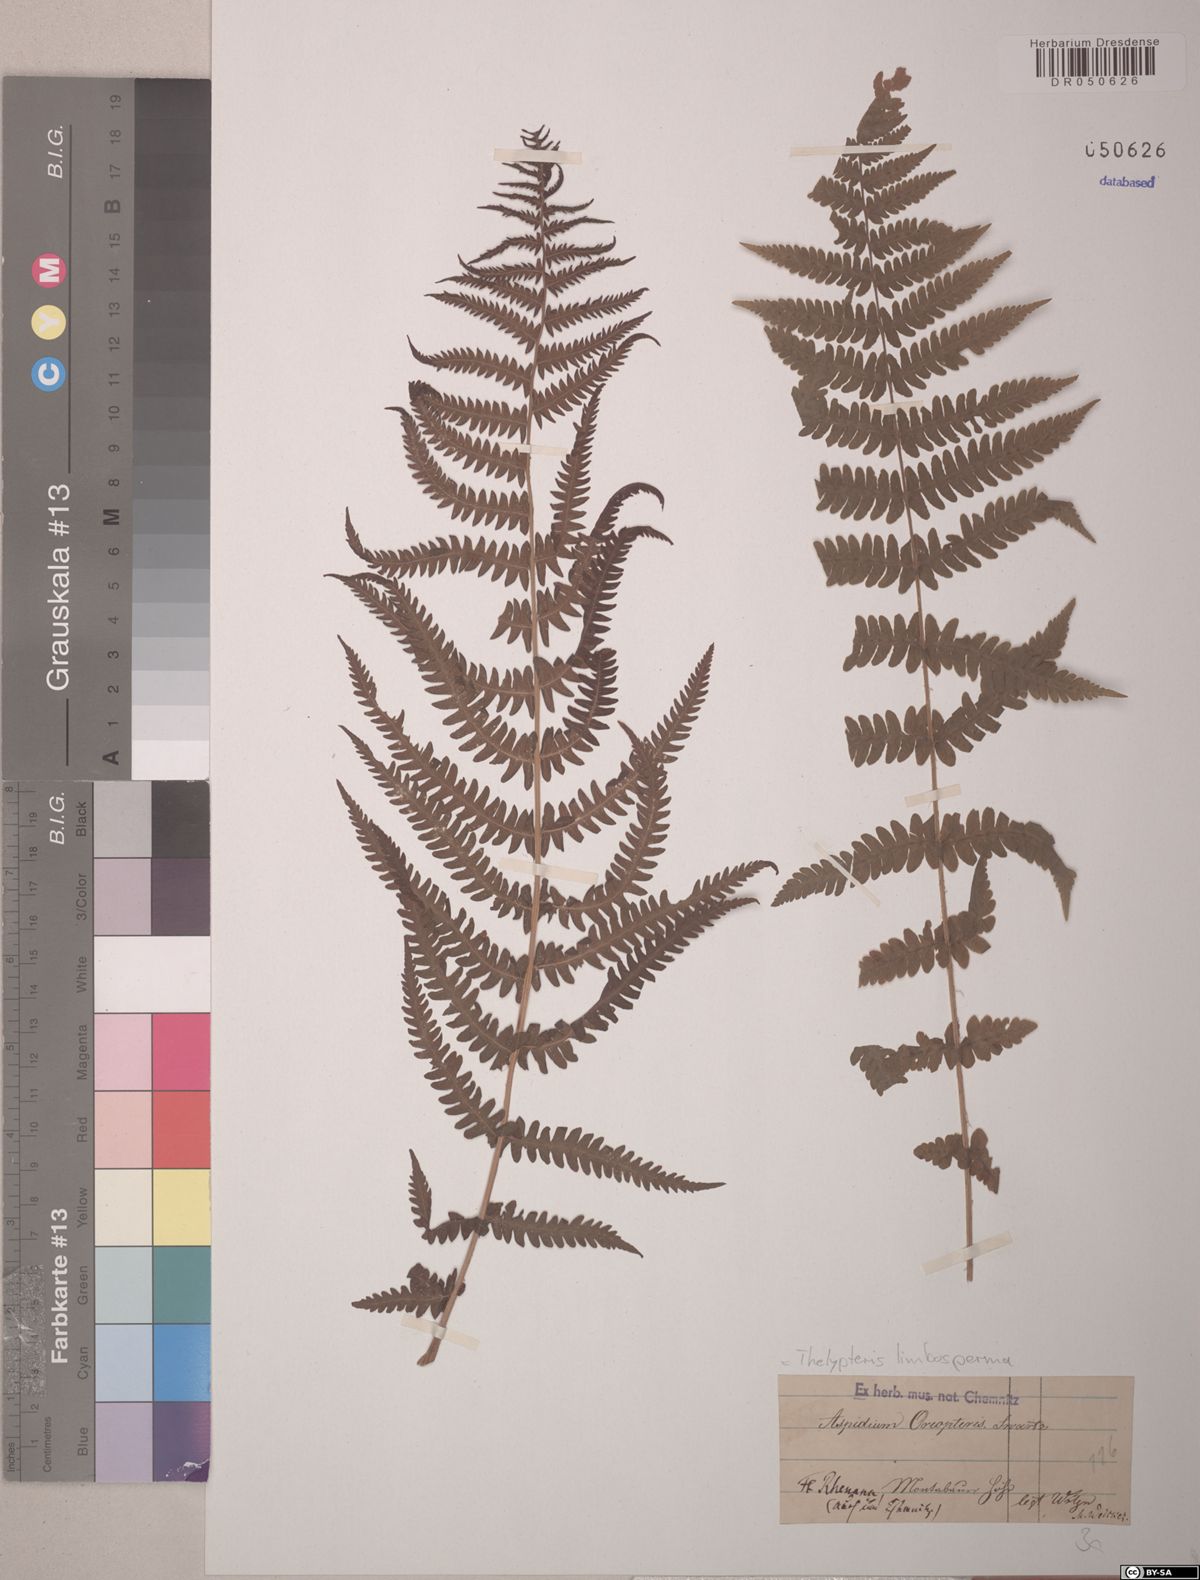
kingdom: Plantae
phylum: Tracheophyta
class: Polypodiopsida
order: Polypodiales
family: Thelypteridaceae
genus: Oreopteris
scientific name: Oreopteris limbosperma
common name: Lemon-scented fern
